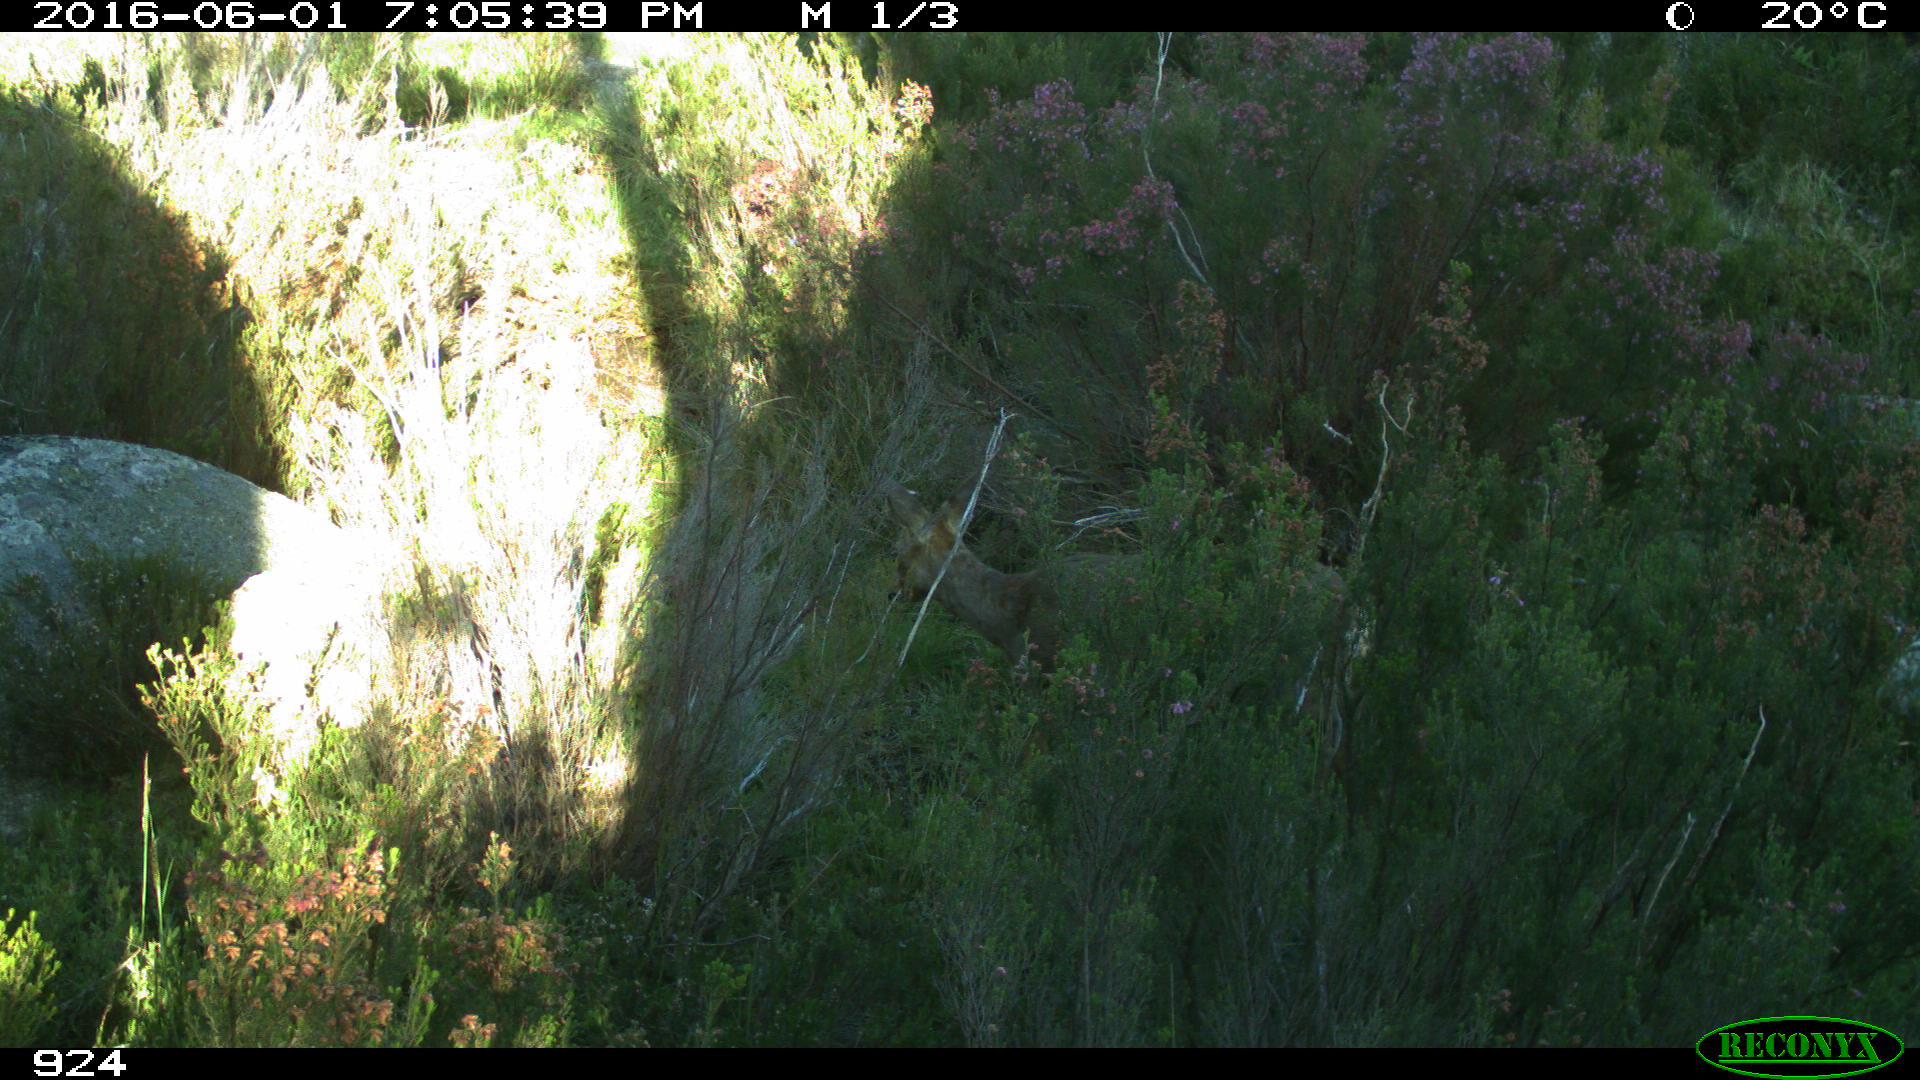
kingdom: Animalia
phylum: Chordata
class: Mammalia
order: Artiodactyla
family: Cervidae
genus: Capreolus
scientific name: Capreolus capreolus
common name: Western roe deer
